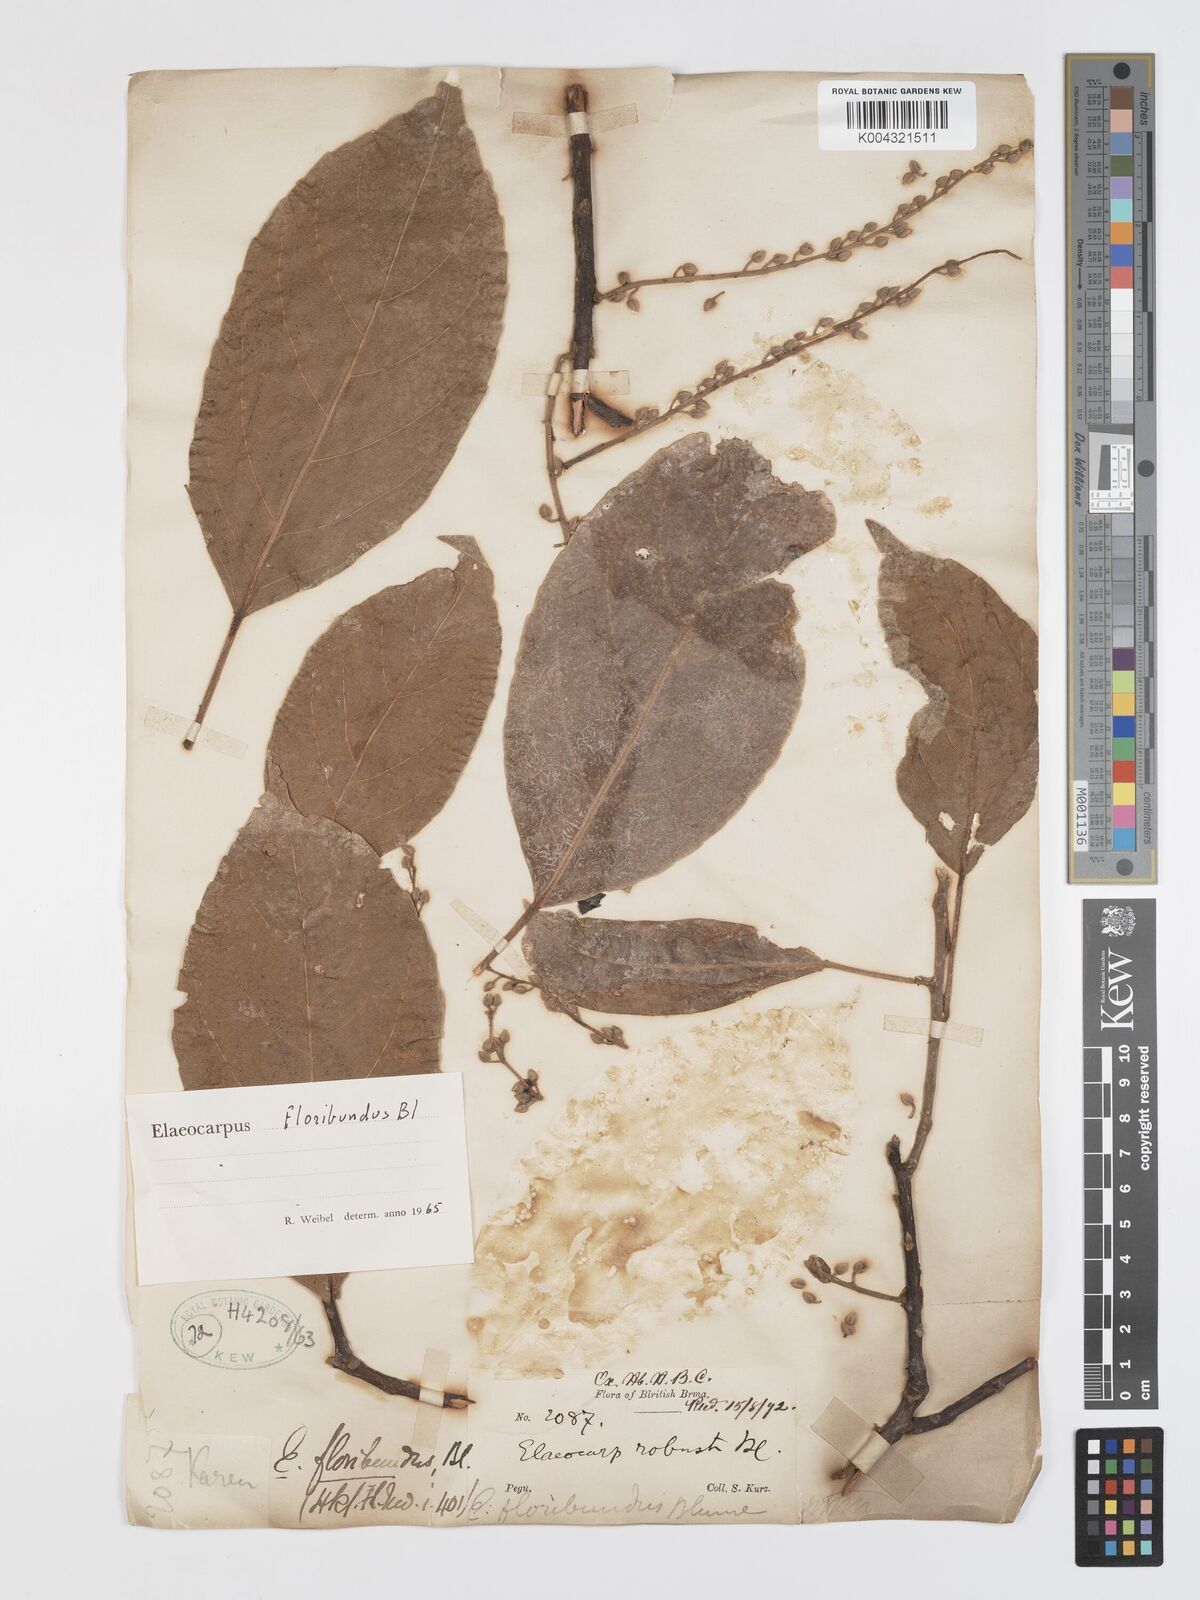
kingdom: Plantae
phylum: Tracheophyta
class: Magnoliopsida
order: Oxalidales
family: Elaeocarpaceae
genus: Elaeocarpus
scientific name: Elaeocarpus floribundus
